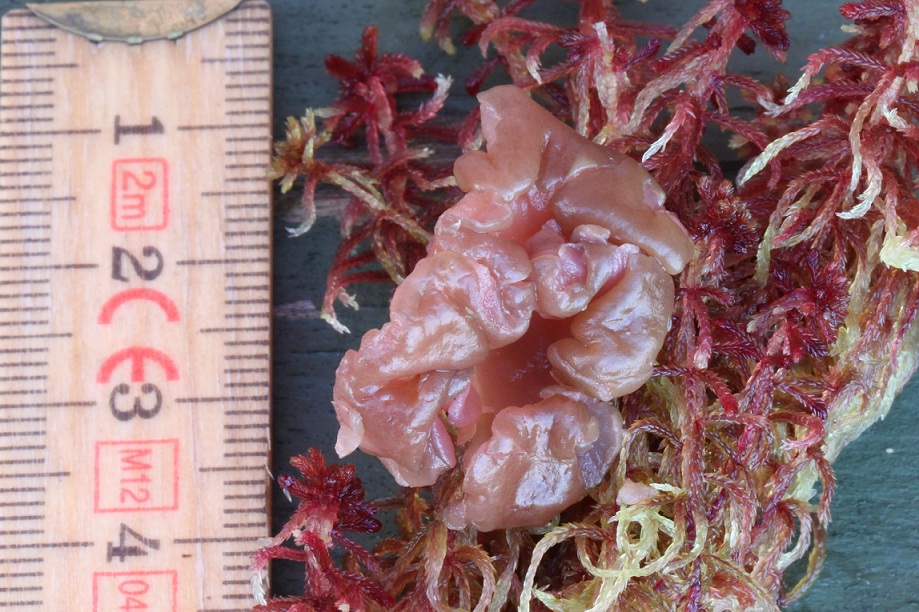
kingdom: Fungi
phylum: Ascomycota
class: Leotiomycetes
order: Helotiales
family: Gelatinodiscaceae
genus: Ascocoryne
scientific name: Ascocoryne turficola
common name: tørve-sejskive
